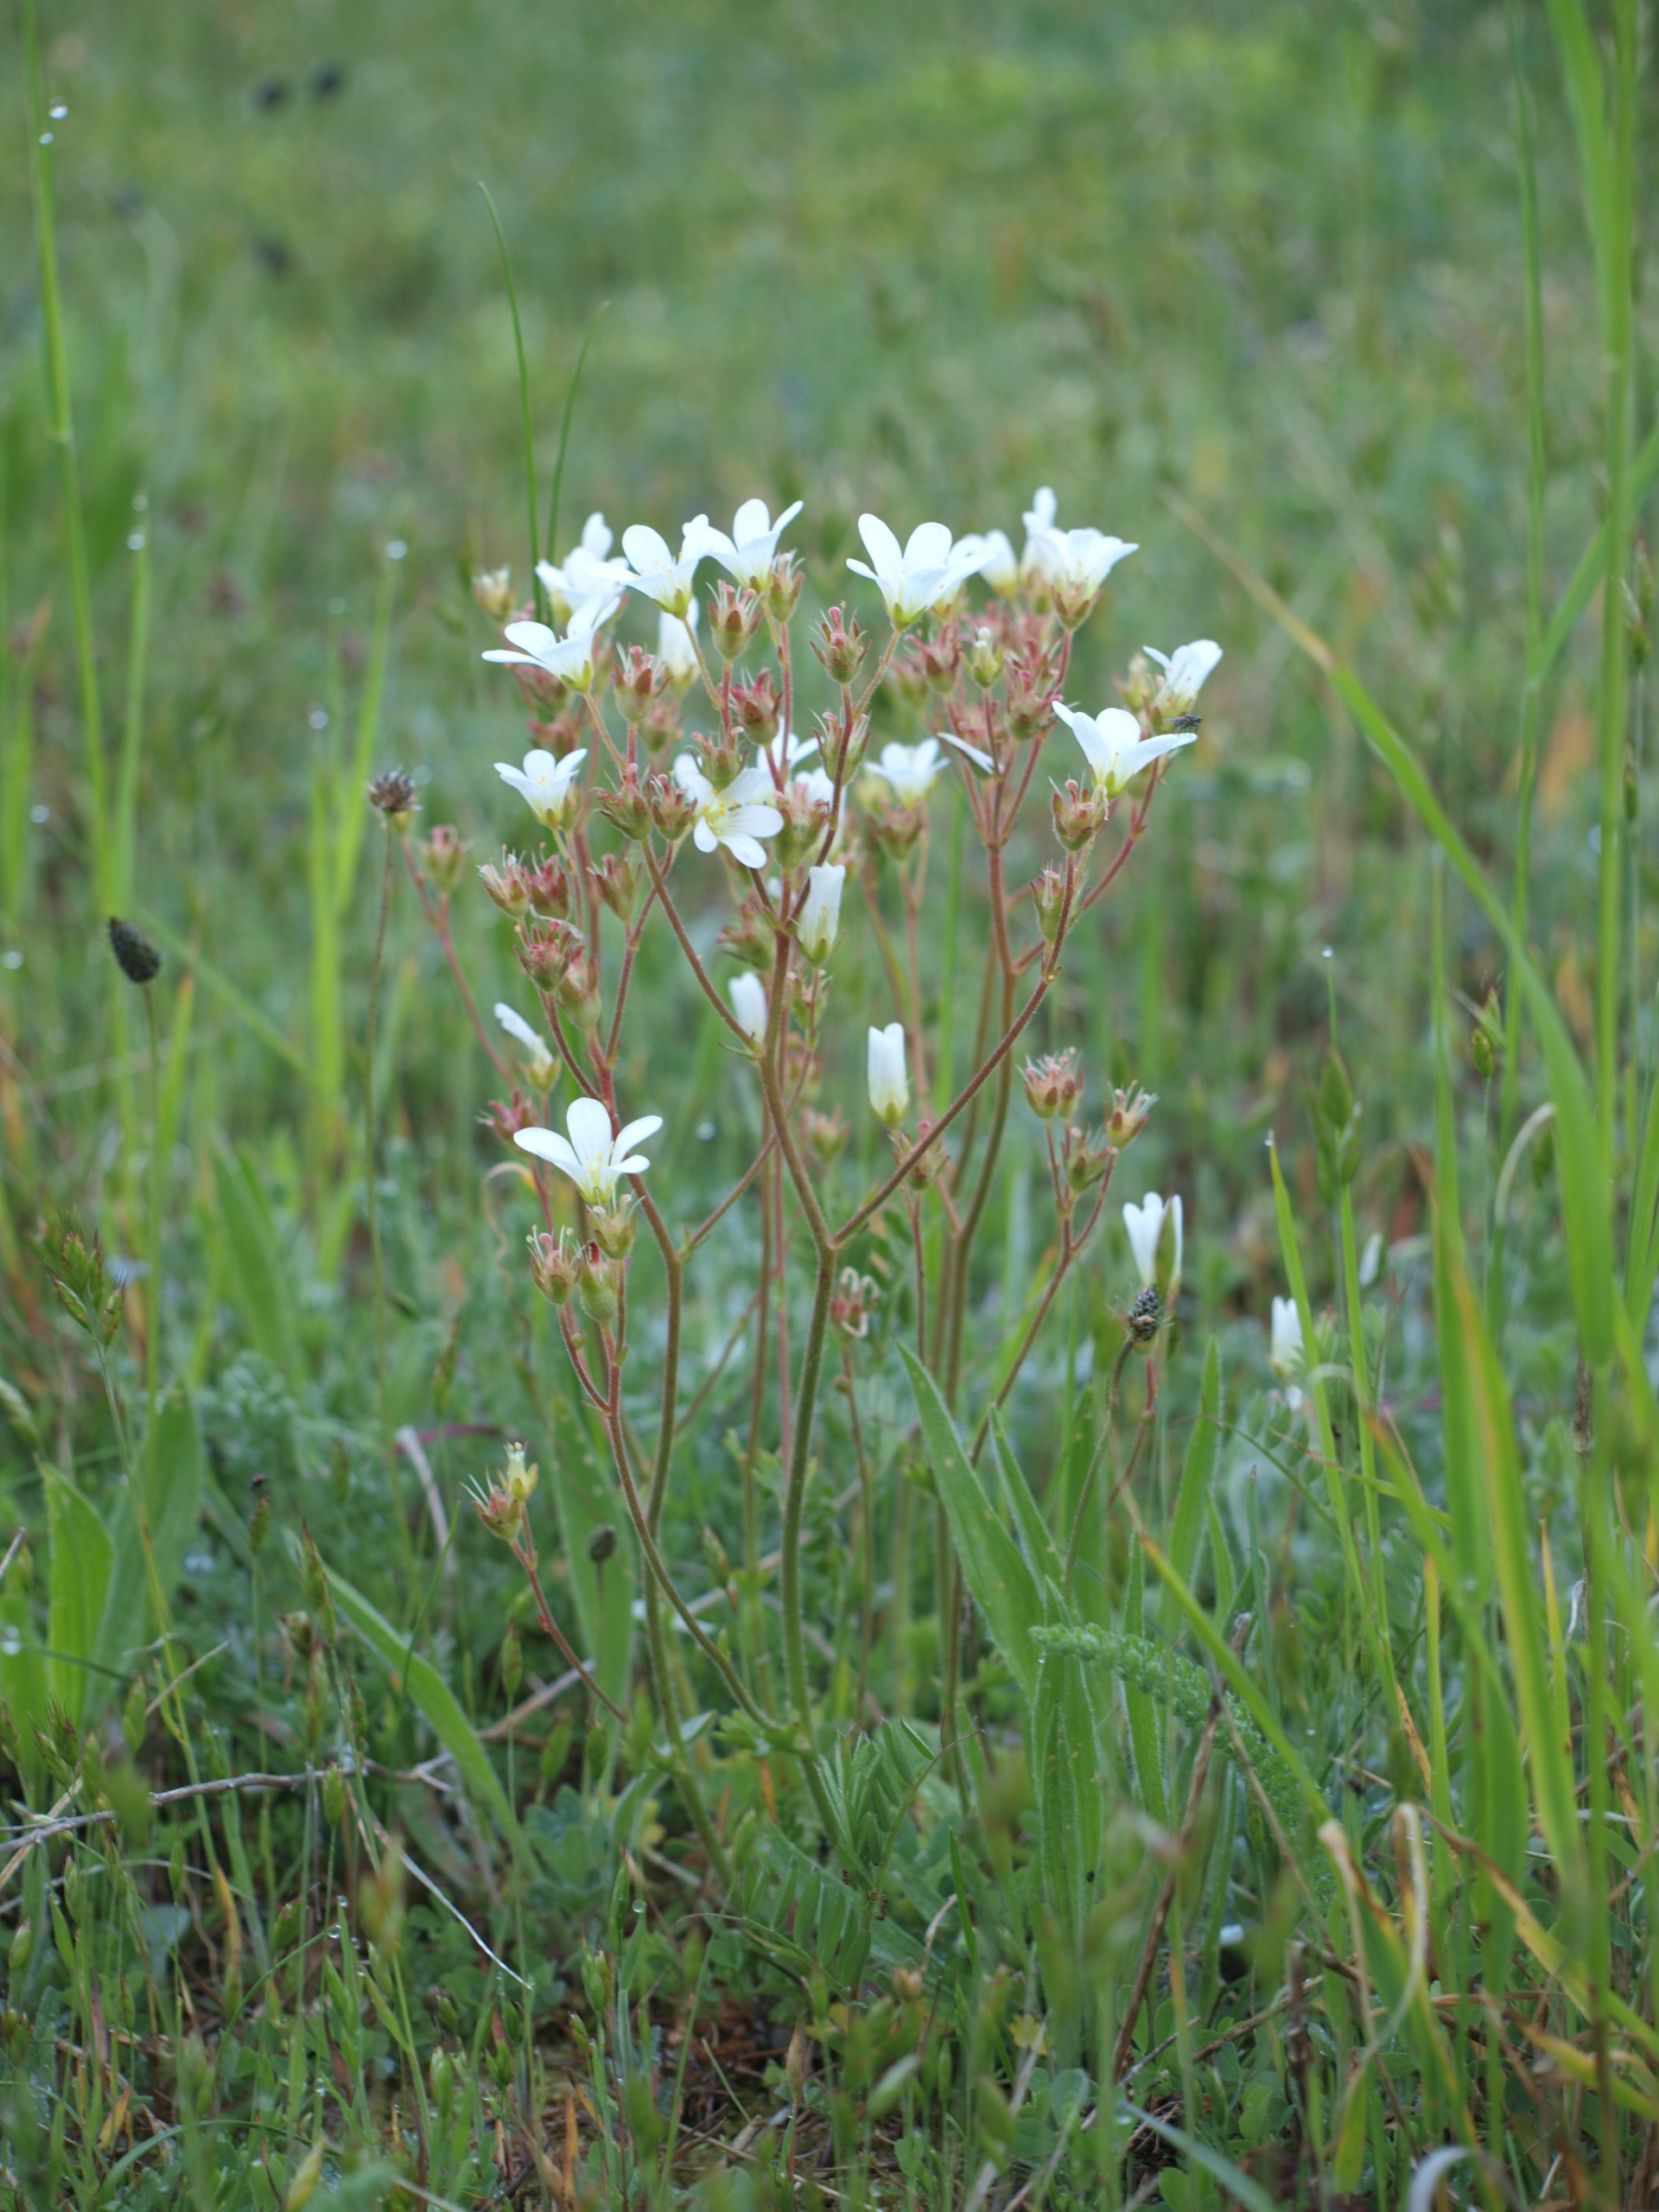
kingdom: Plantae
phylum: Tracheophyta
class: Magnoliopsida
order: Saxifragales
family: Saxifragaceae
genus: Saxifraga
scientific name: Saxifraga granulata
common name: Kornet stenbræk
